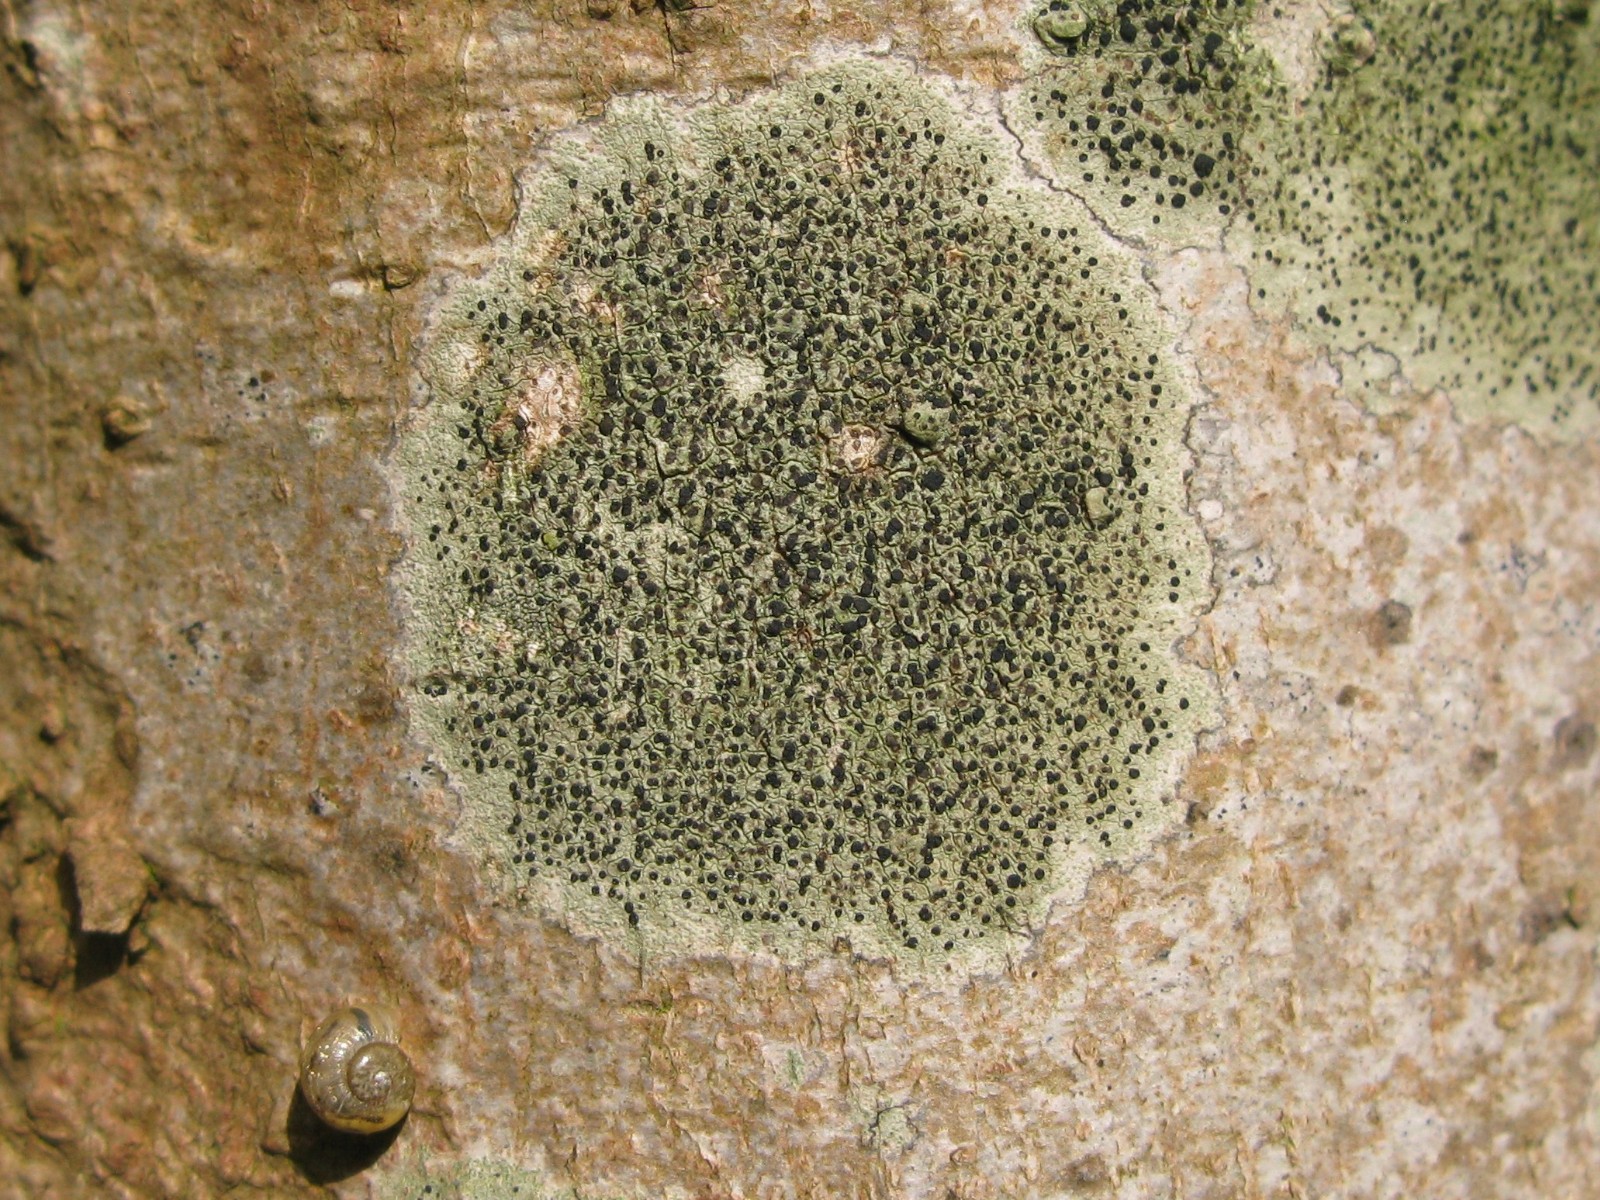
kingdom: Fungi
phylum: Ascomycota
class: Lecanoromycetes
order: Lecanorales
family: Lecanoraceae
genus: Lecidella
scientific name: Lecidella elaeochroma
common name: grågrøn skivelav
